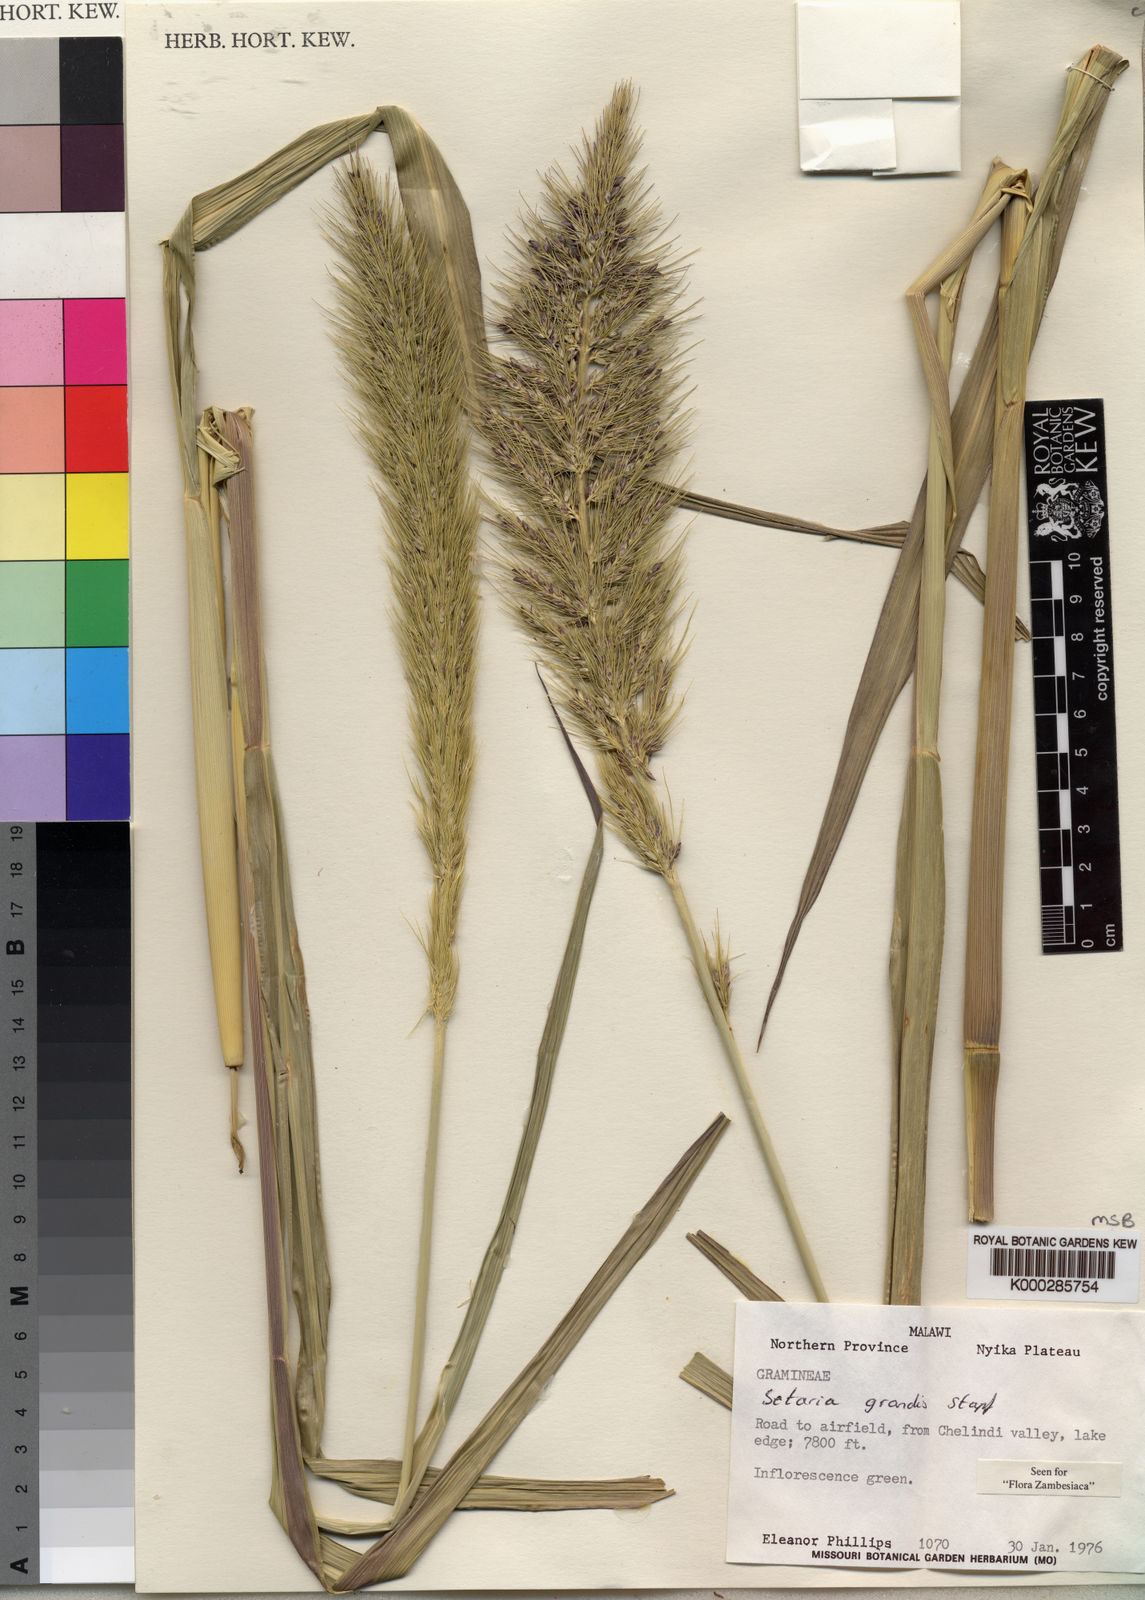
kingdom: Plantae
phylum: Tracheophyta
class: Liliopsida
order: Poales
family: Poaceae
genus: Setaria
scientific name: Setaria grandis
